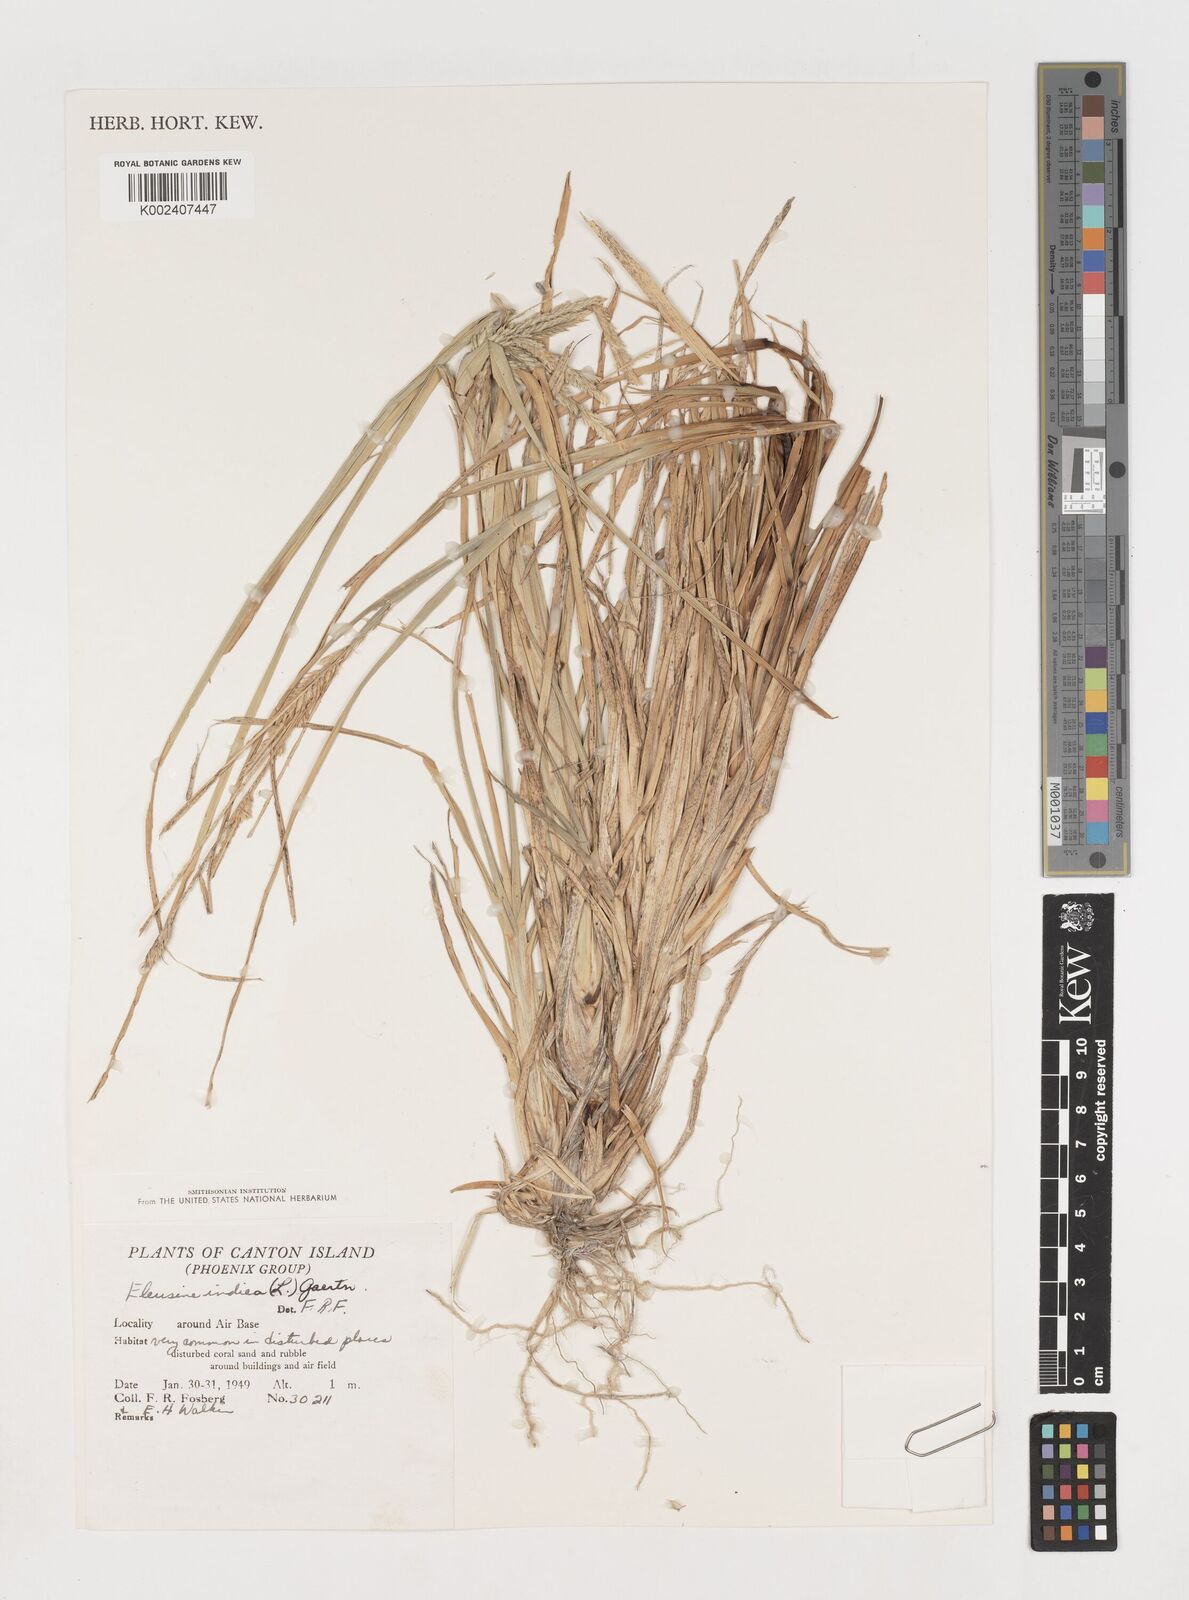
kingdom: Plantae
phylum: Tracheophyta
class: Liliopsida
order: Poales
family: Poaceae
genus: Eleusine
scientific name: Eleusine
